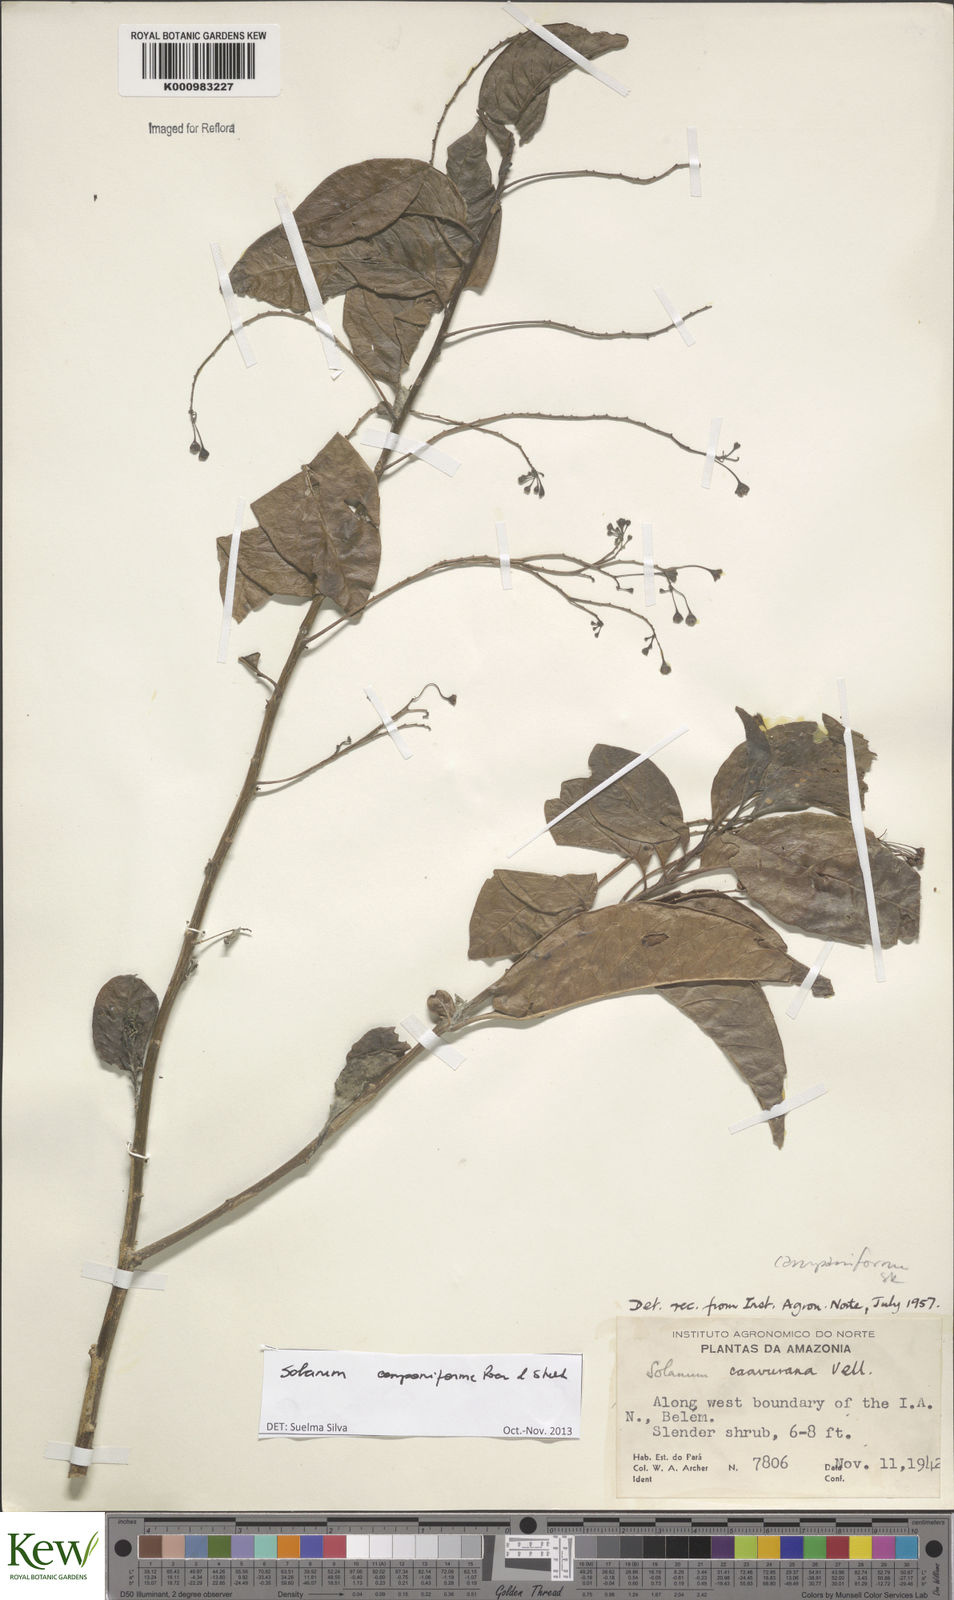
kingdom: Plantae
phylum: Tracheophyta
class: Magnoliopsida
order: Solanales
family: Solanaceae
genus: Solanum
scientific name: Solanum campaniforme
